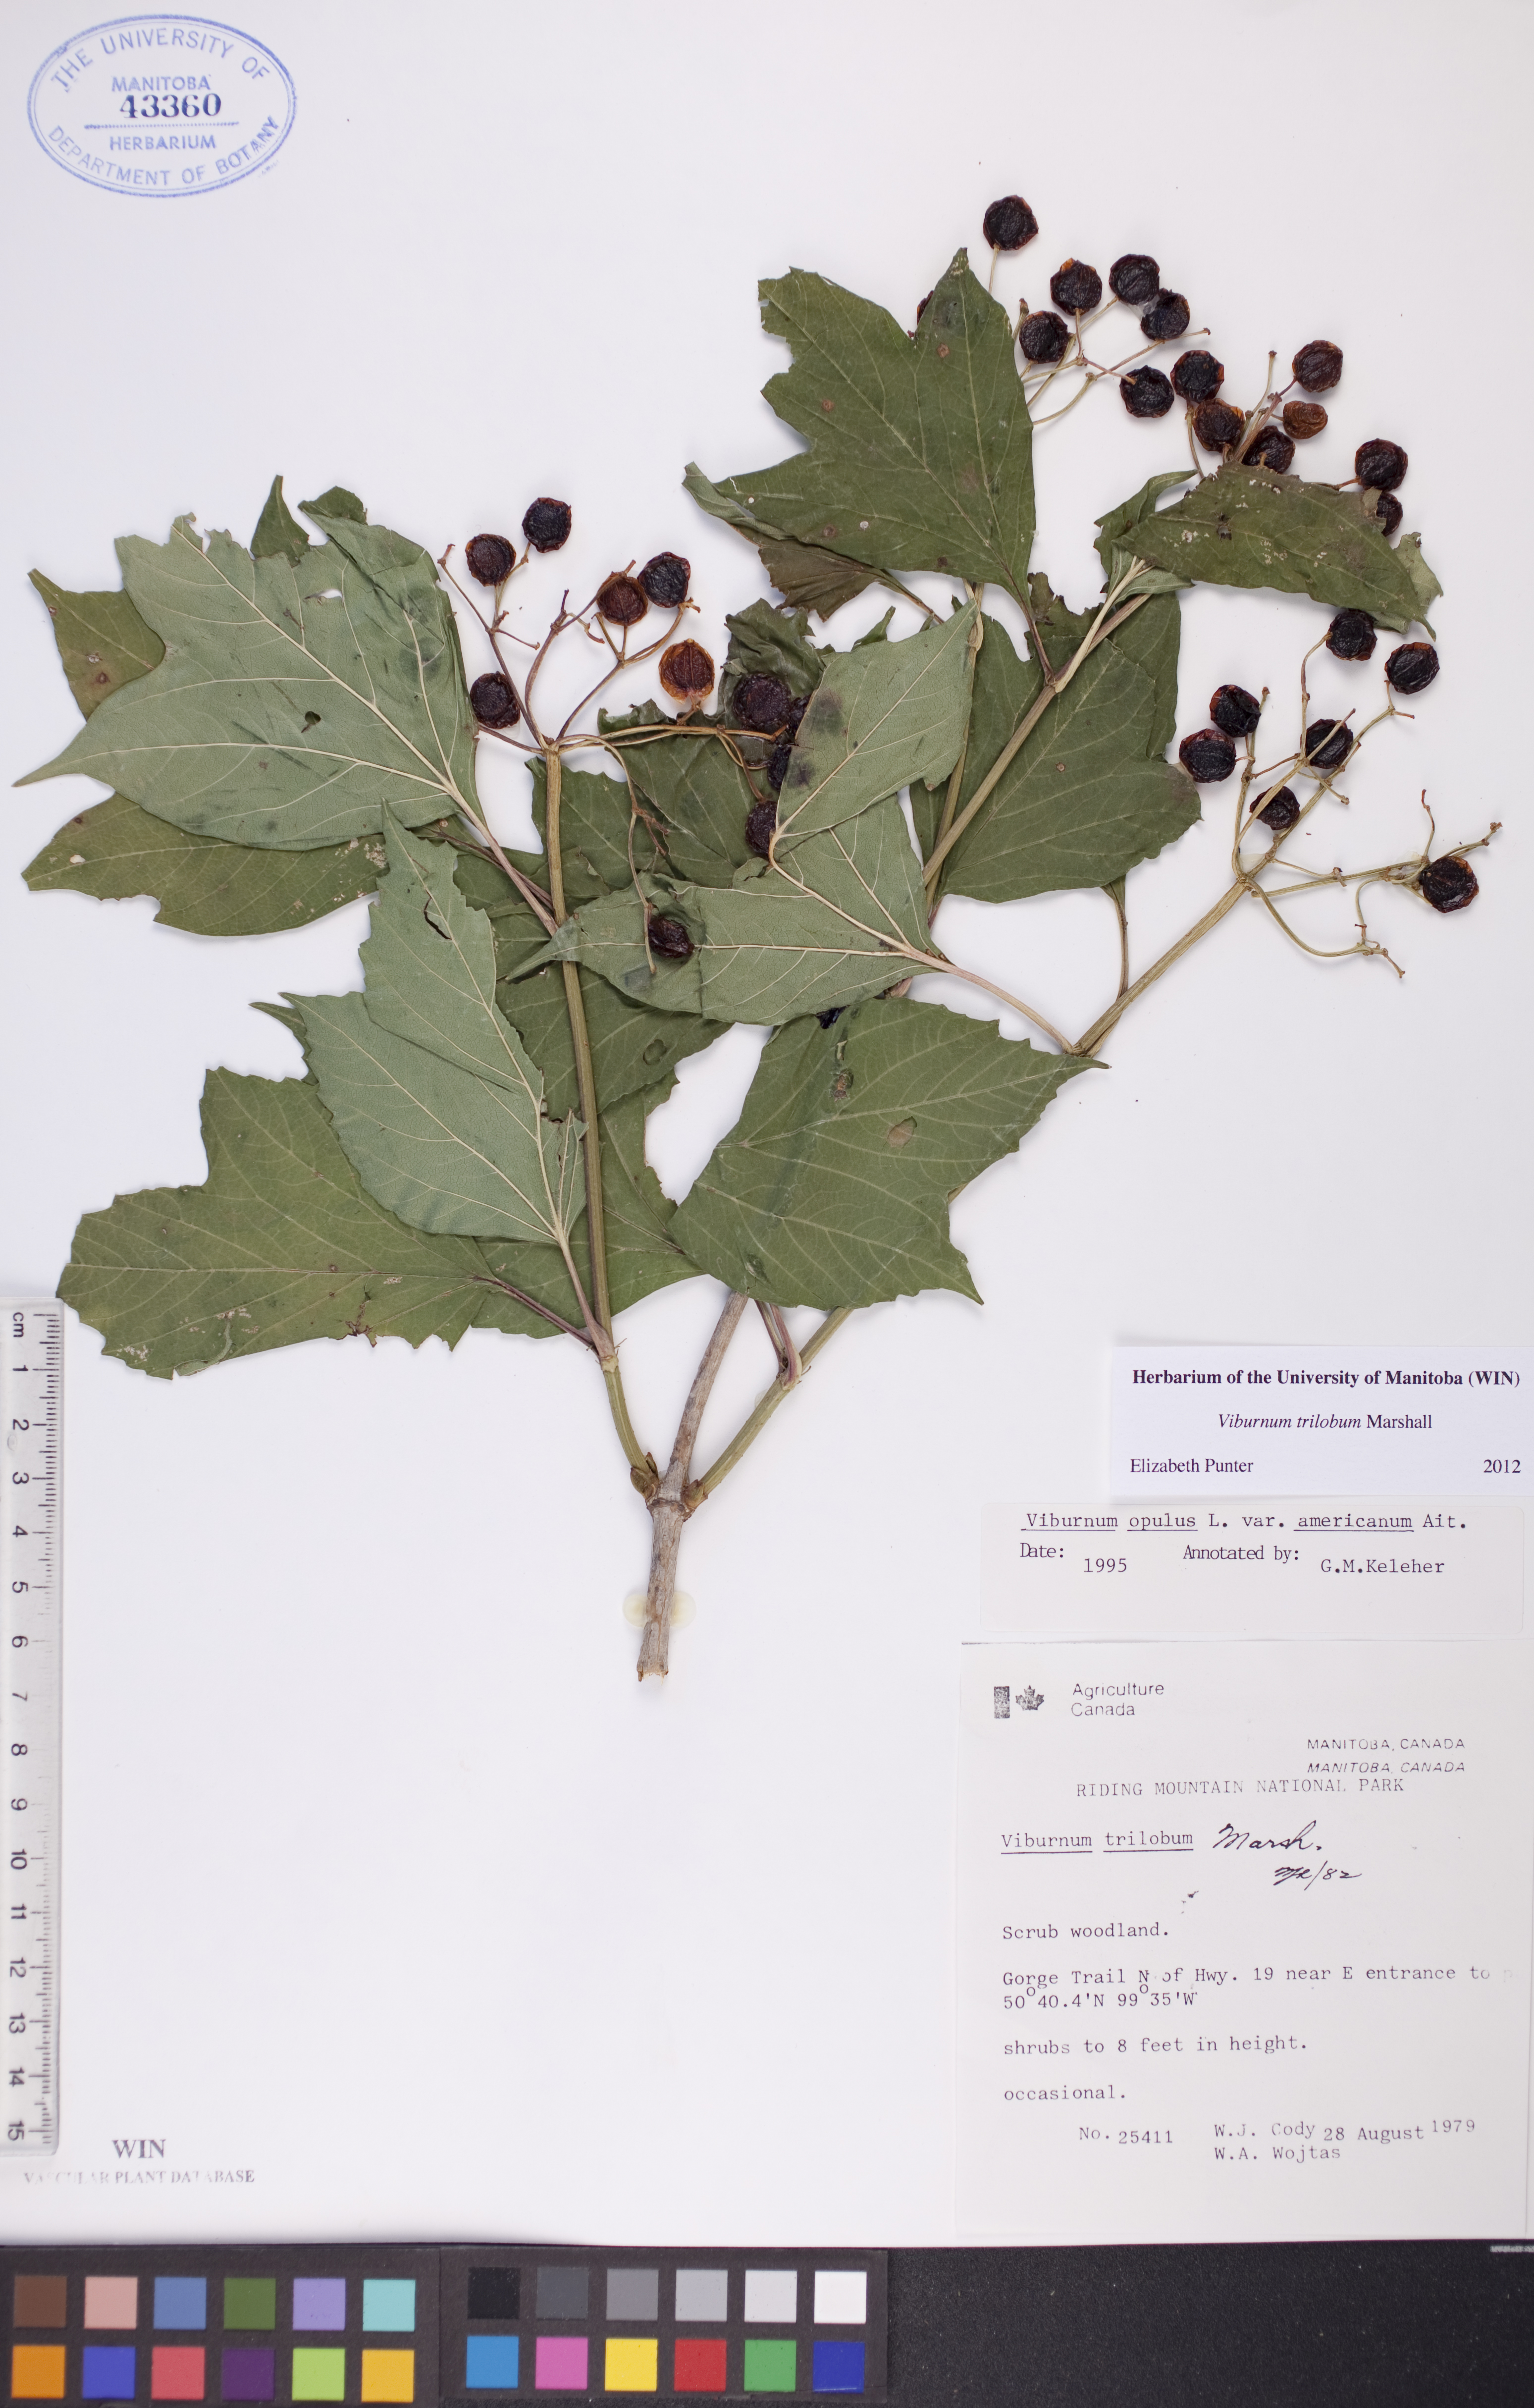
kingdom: Plantae
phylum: Tracheophyta
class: Magnoliopsida
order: Dipsacales
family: Viburnaceae
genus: Viburnum
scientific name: Viburnum trilobum
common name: American cranberrybush
